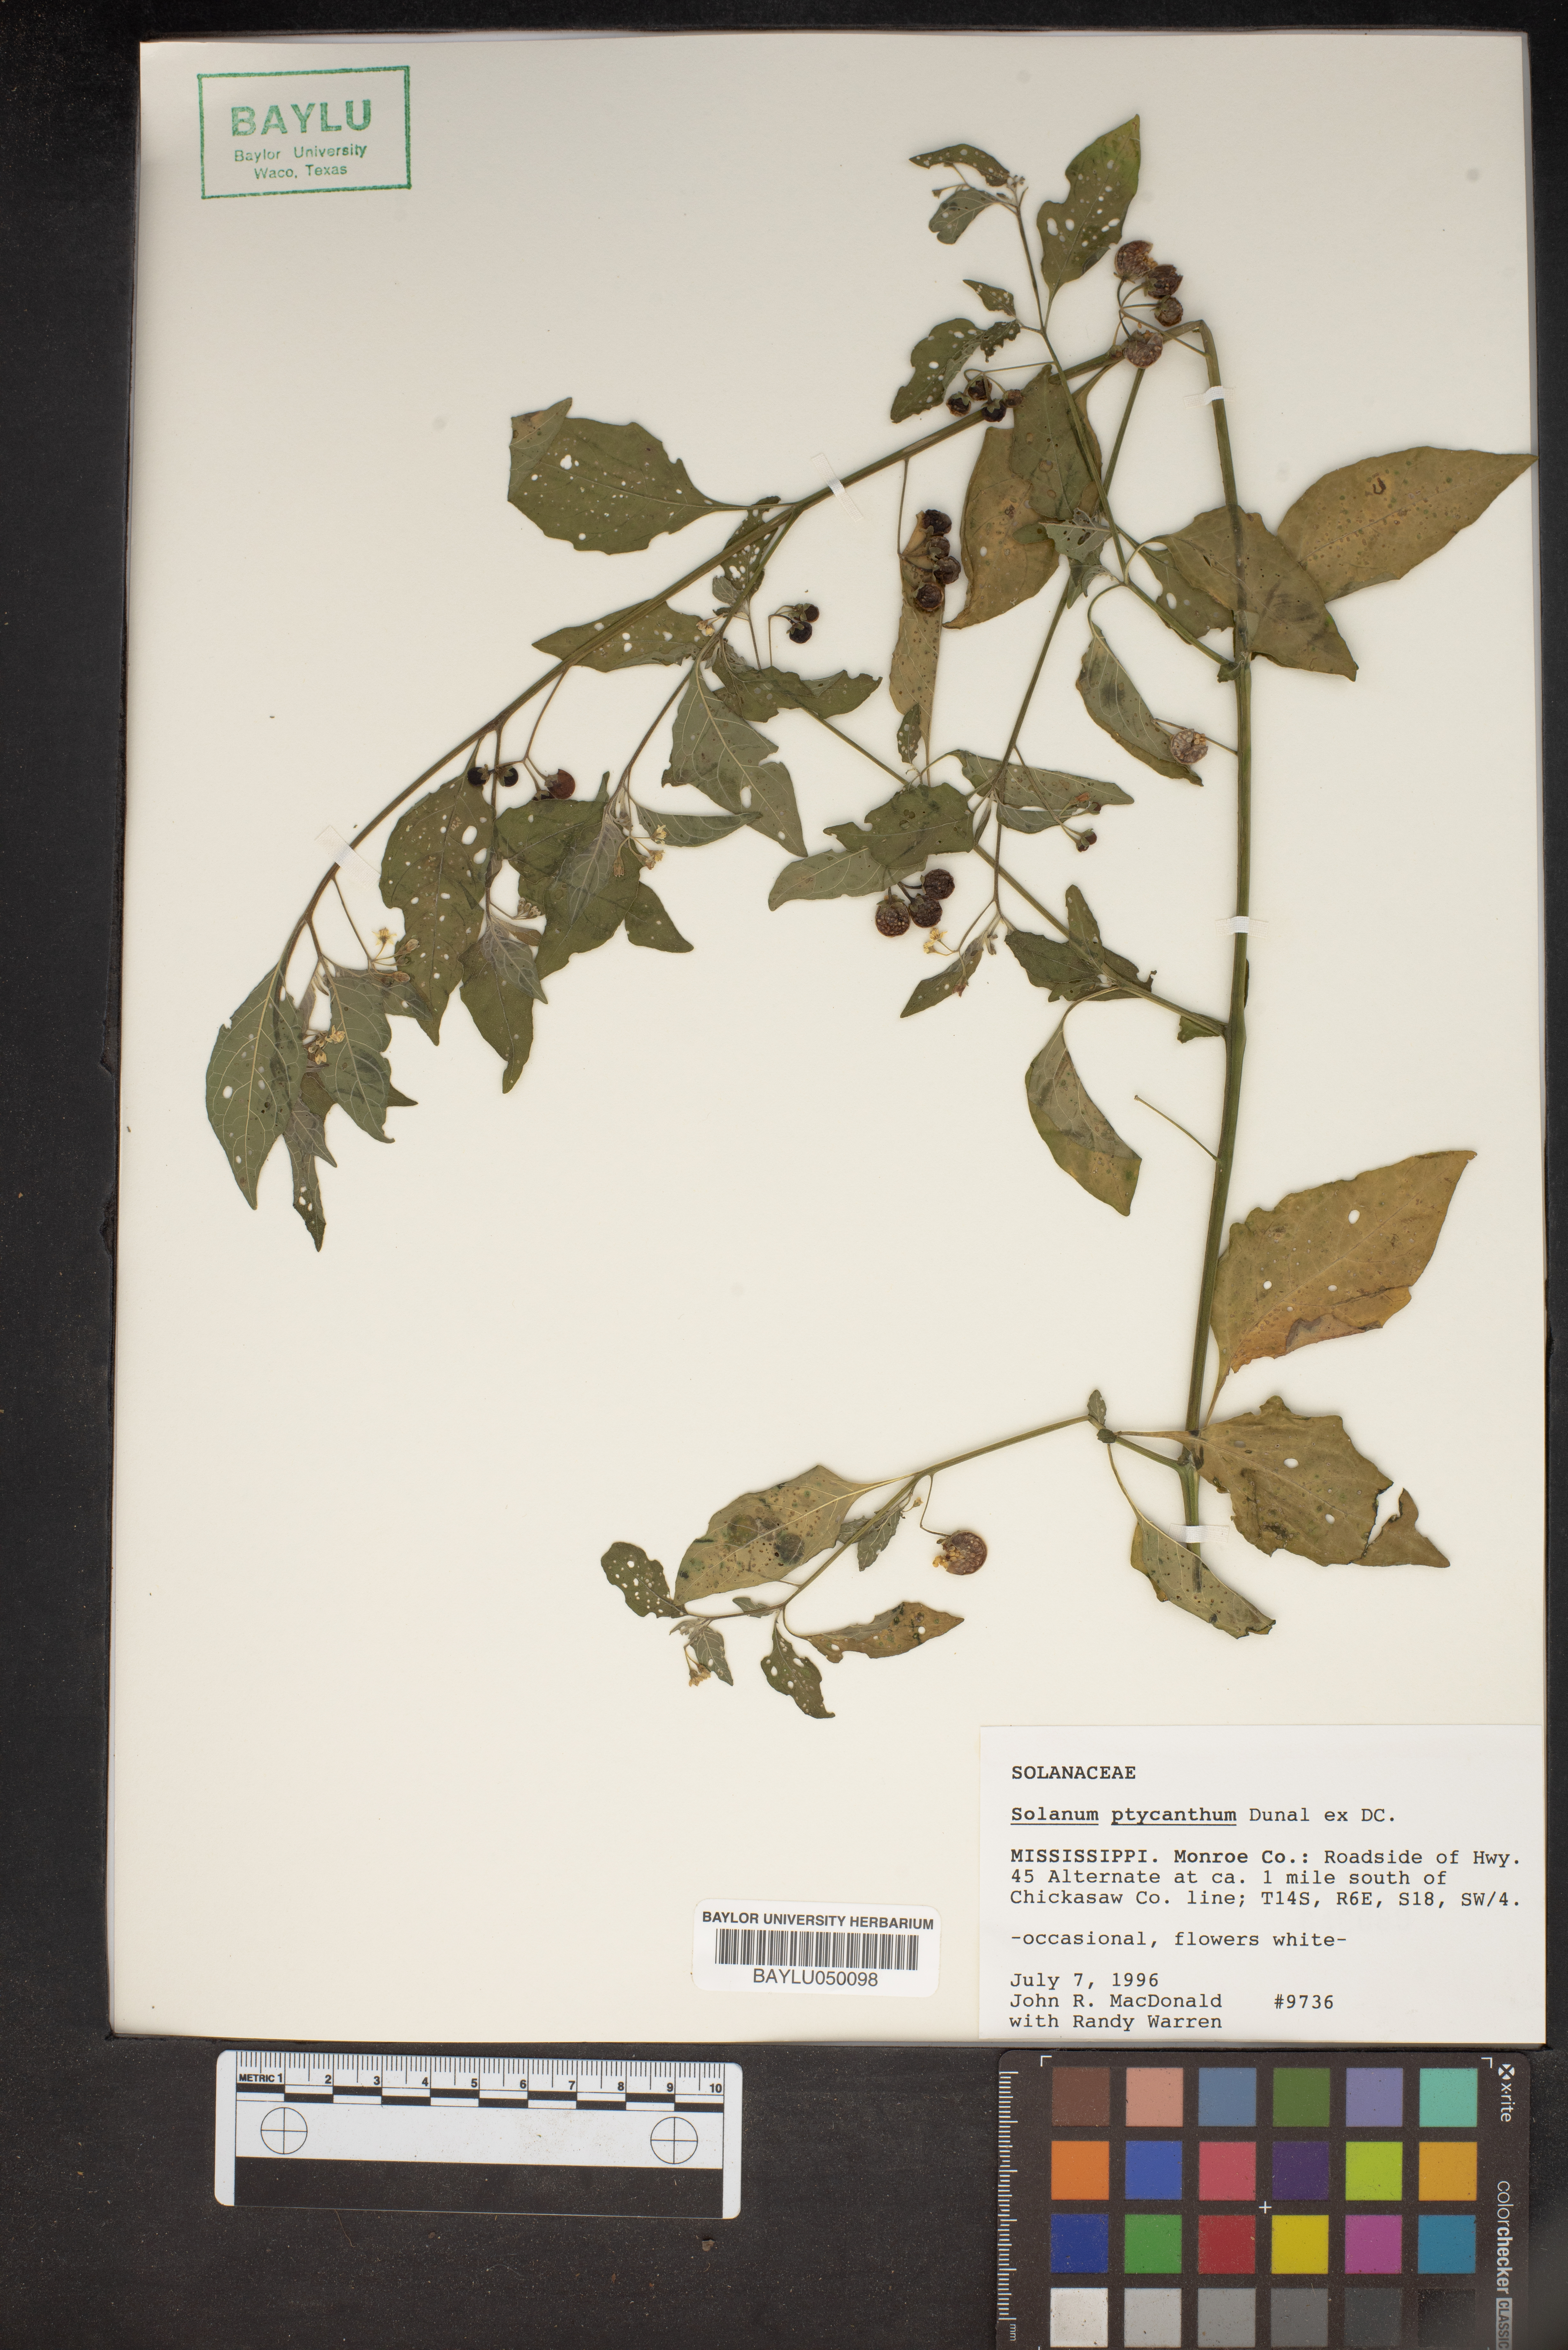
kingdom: Plantae
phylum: Tracheophyta
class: Magnoliopsida
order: Solanales
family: Solanaceae
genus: Solanum
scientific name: Solanum americanum
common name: American black nightshade
